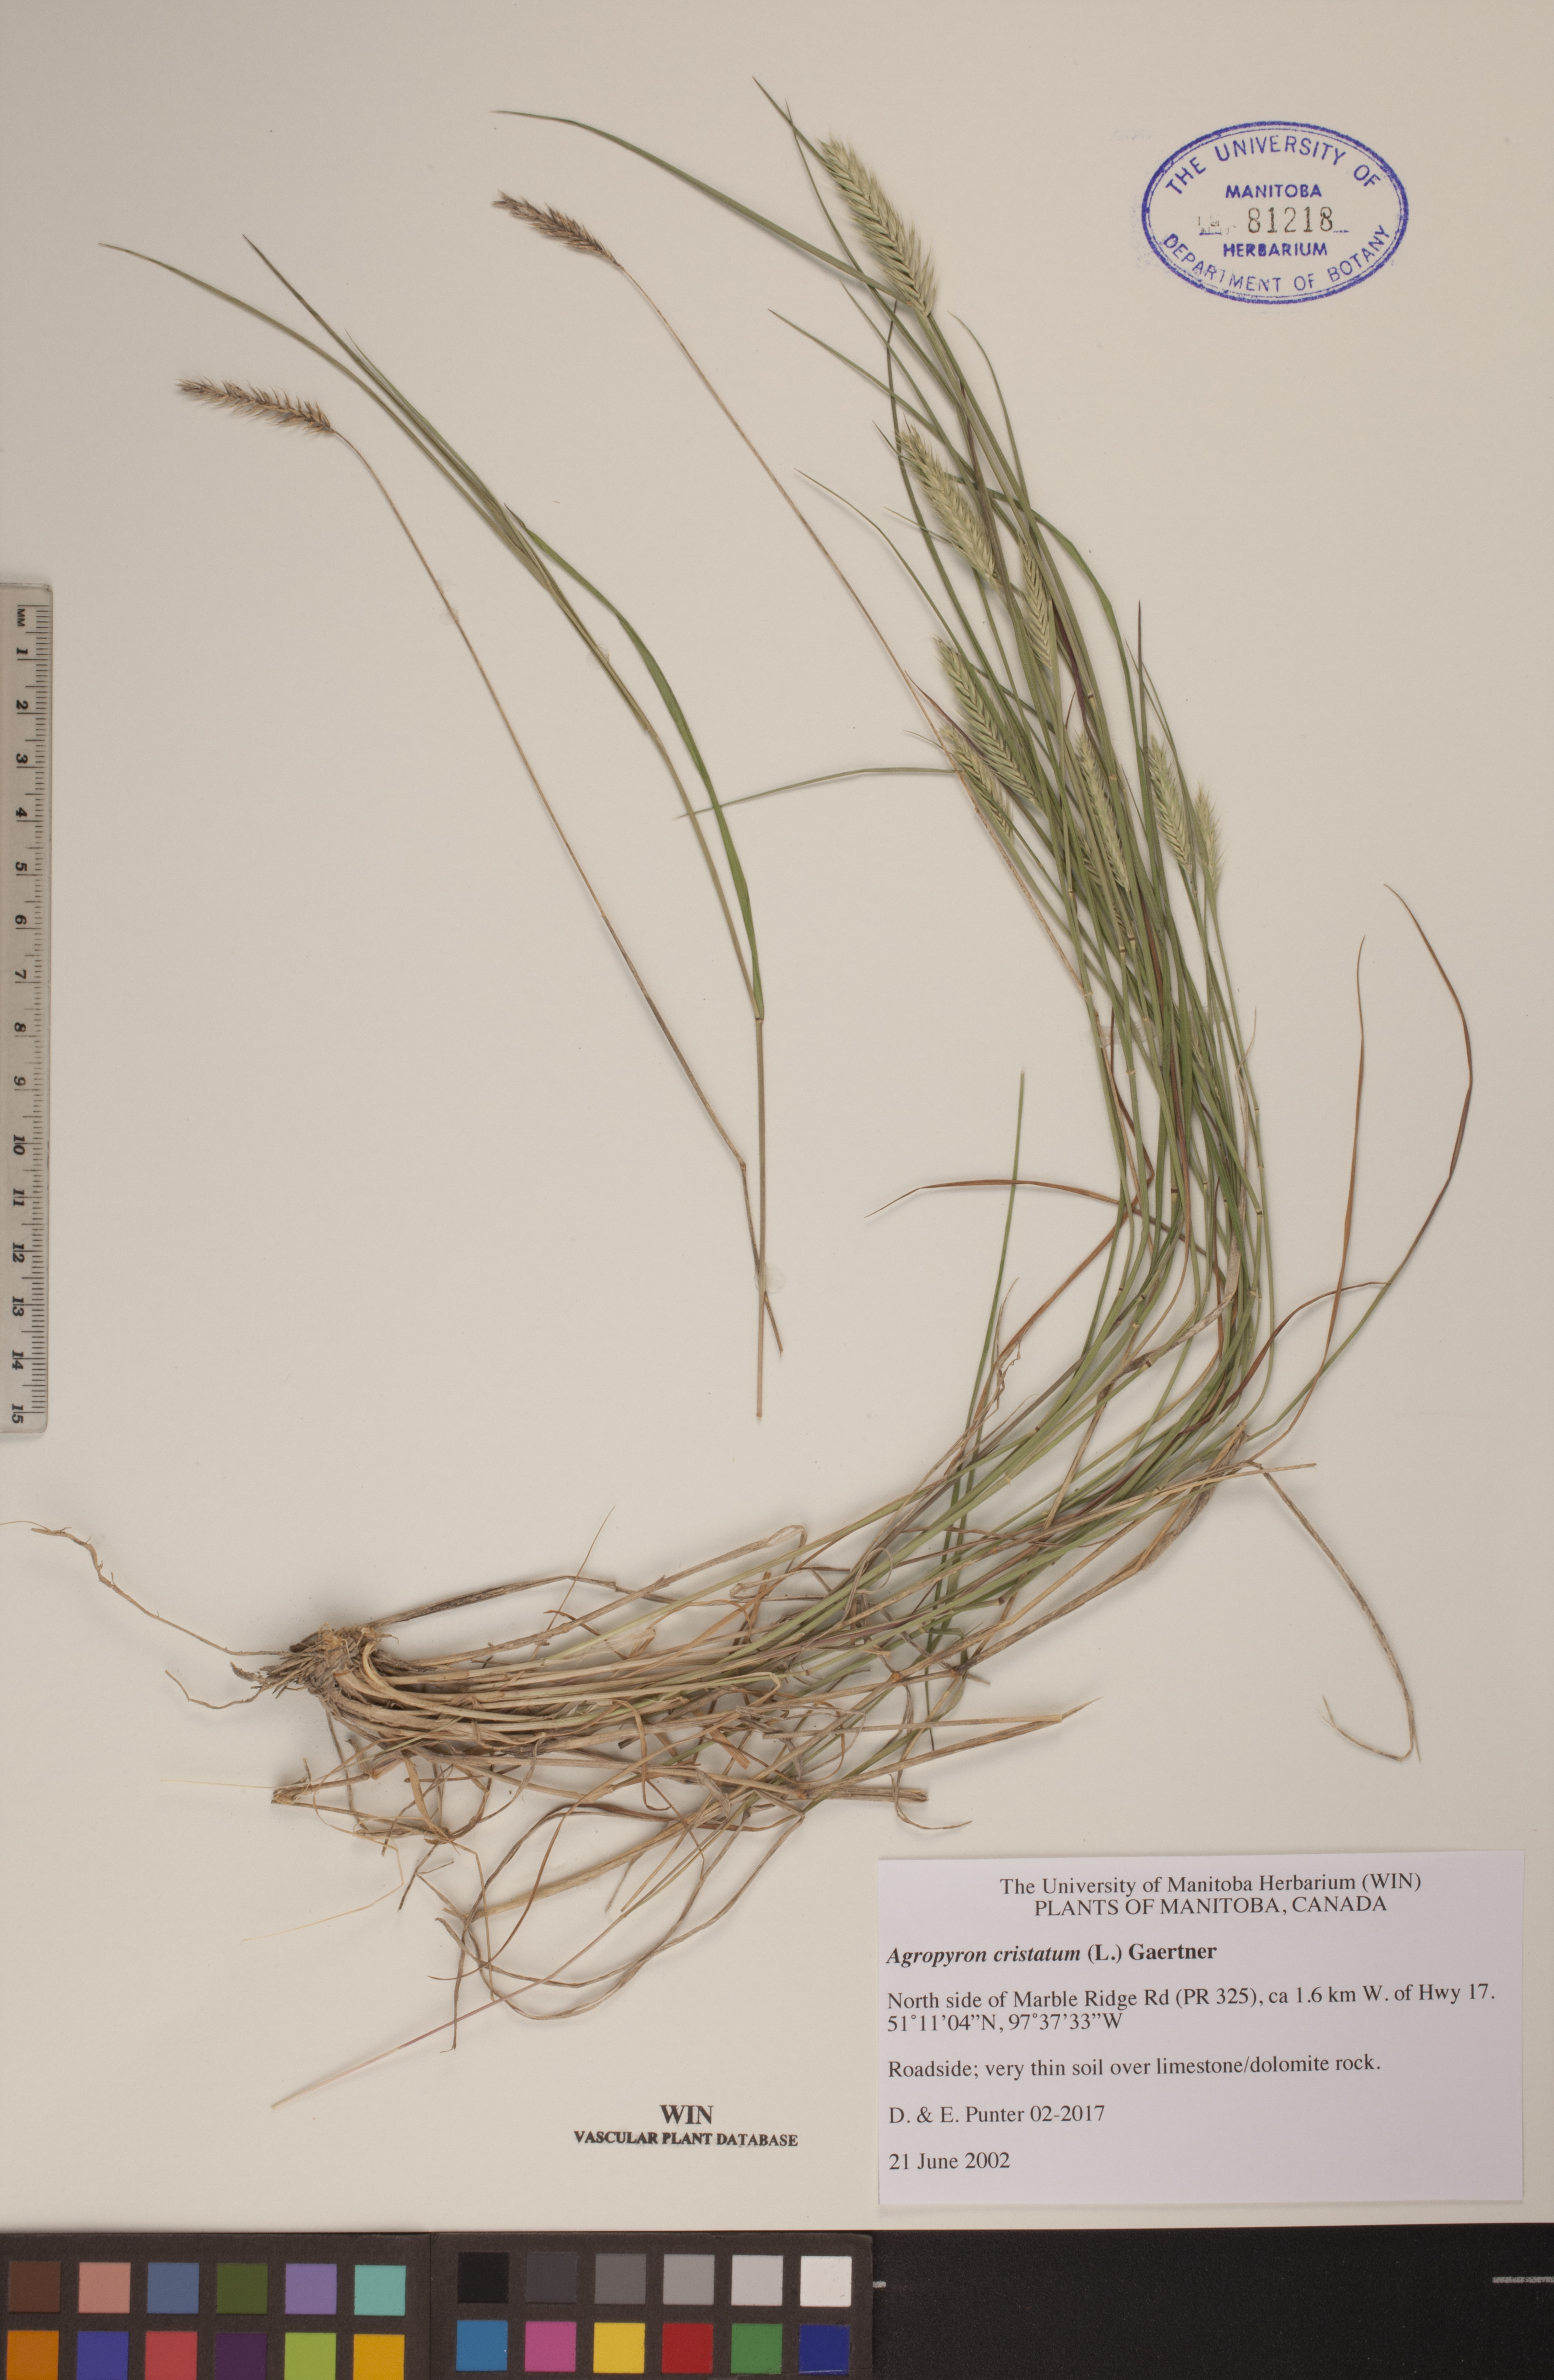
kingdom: Plantae
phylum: Tracheophyta
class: Liliopsida
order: Poales
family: Poaceae
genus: Agropyron
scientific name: Agropyron cristatum
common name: Crested wheatgrass
